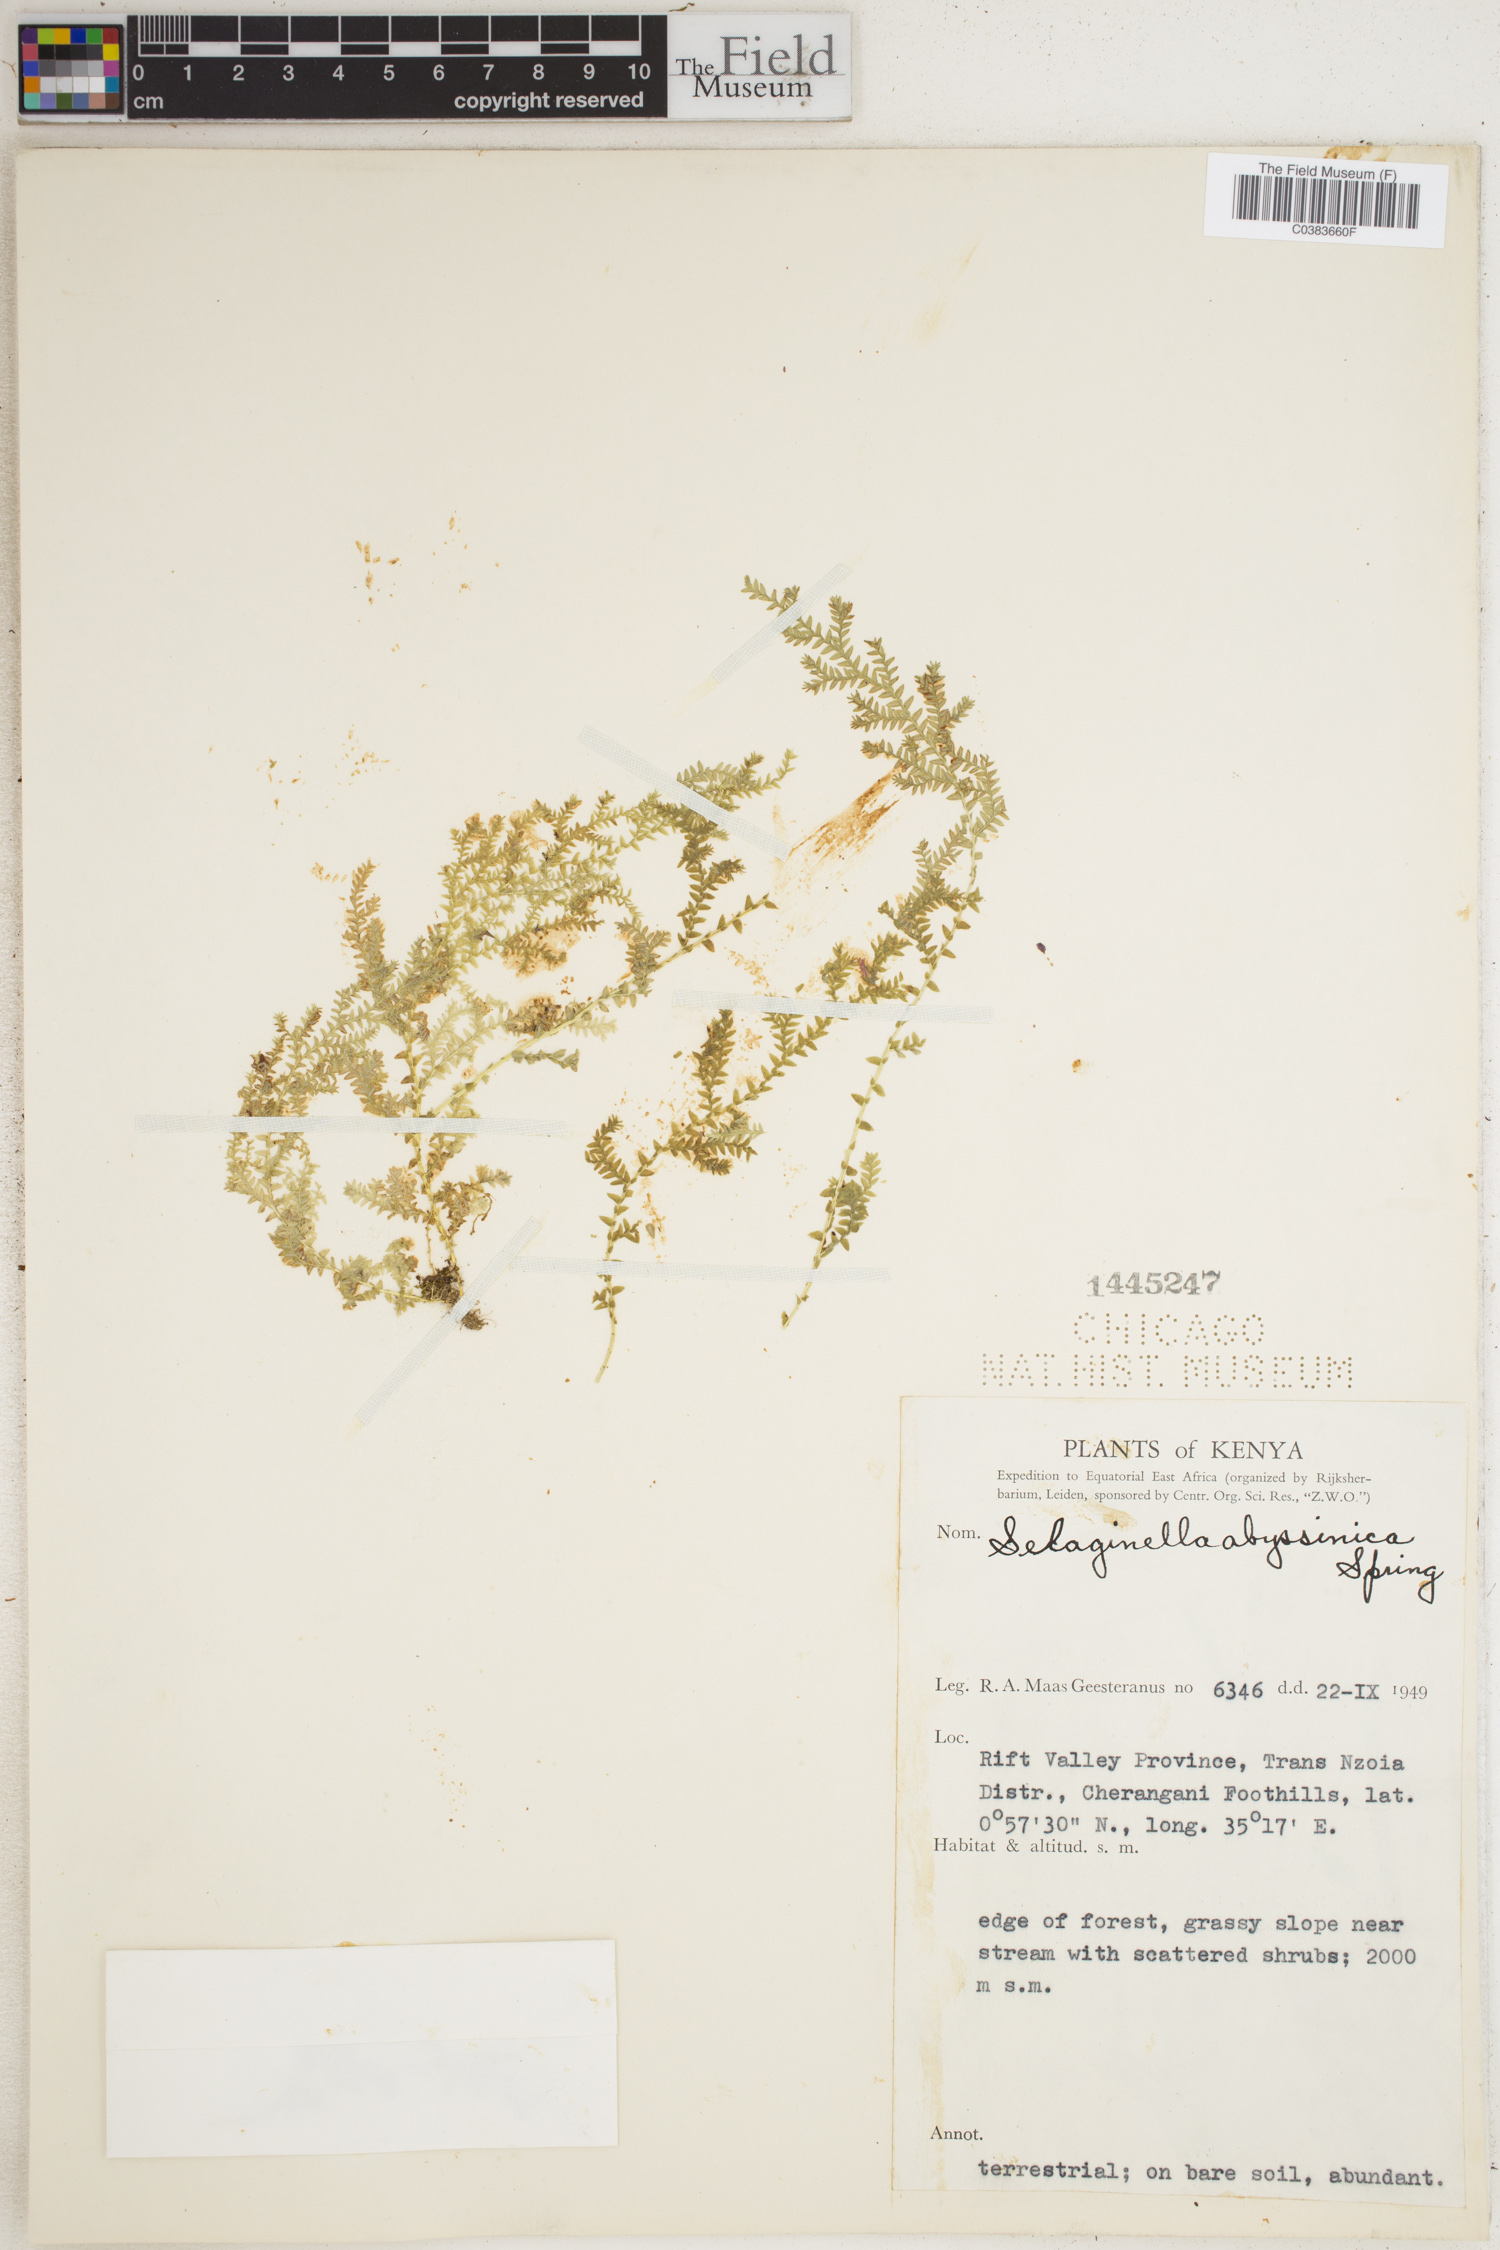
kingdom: Plantae
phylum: Tracheophyta
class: Lycopodiopsida
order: Selaginellales
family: Selaginellaceae
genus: Selaginella
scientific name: Selaginella goudotiana
